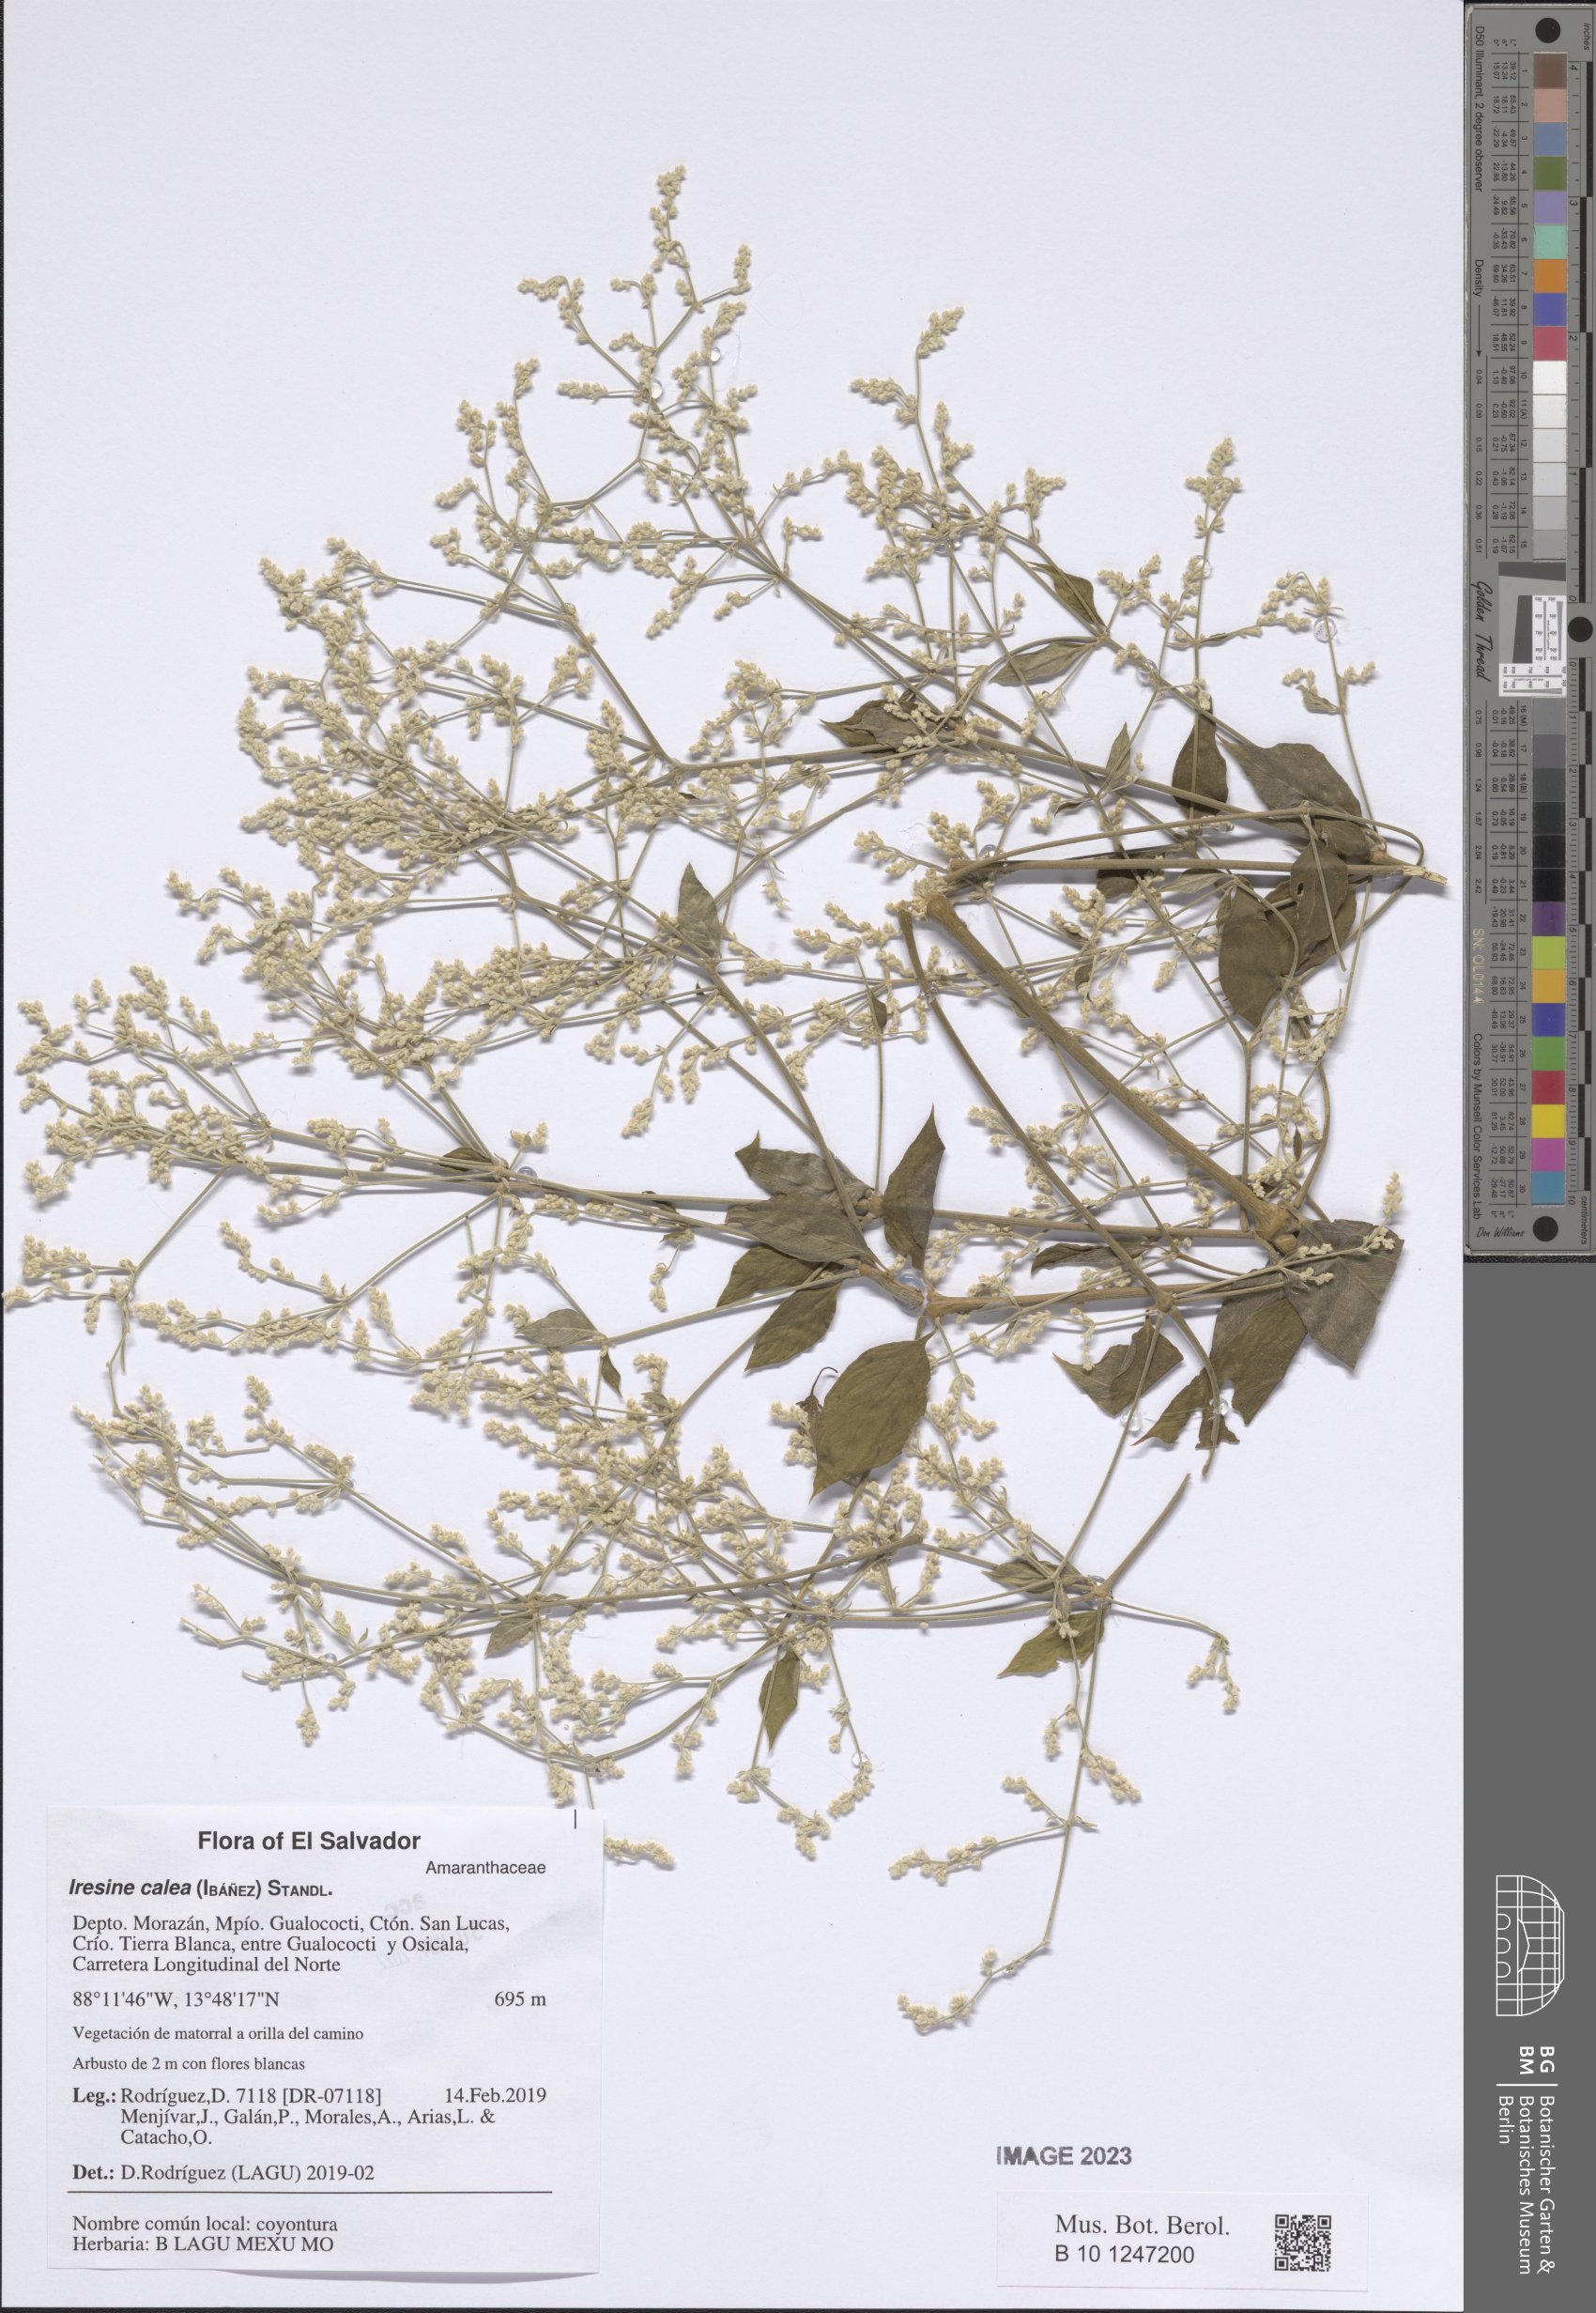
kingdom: Plantae
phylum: Tracheophyta
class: Magnoliopsida
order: Caryophyllales
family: Amaranthaceae
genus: Iresine
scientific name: Iresine latifolia
